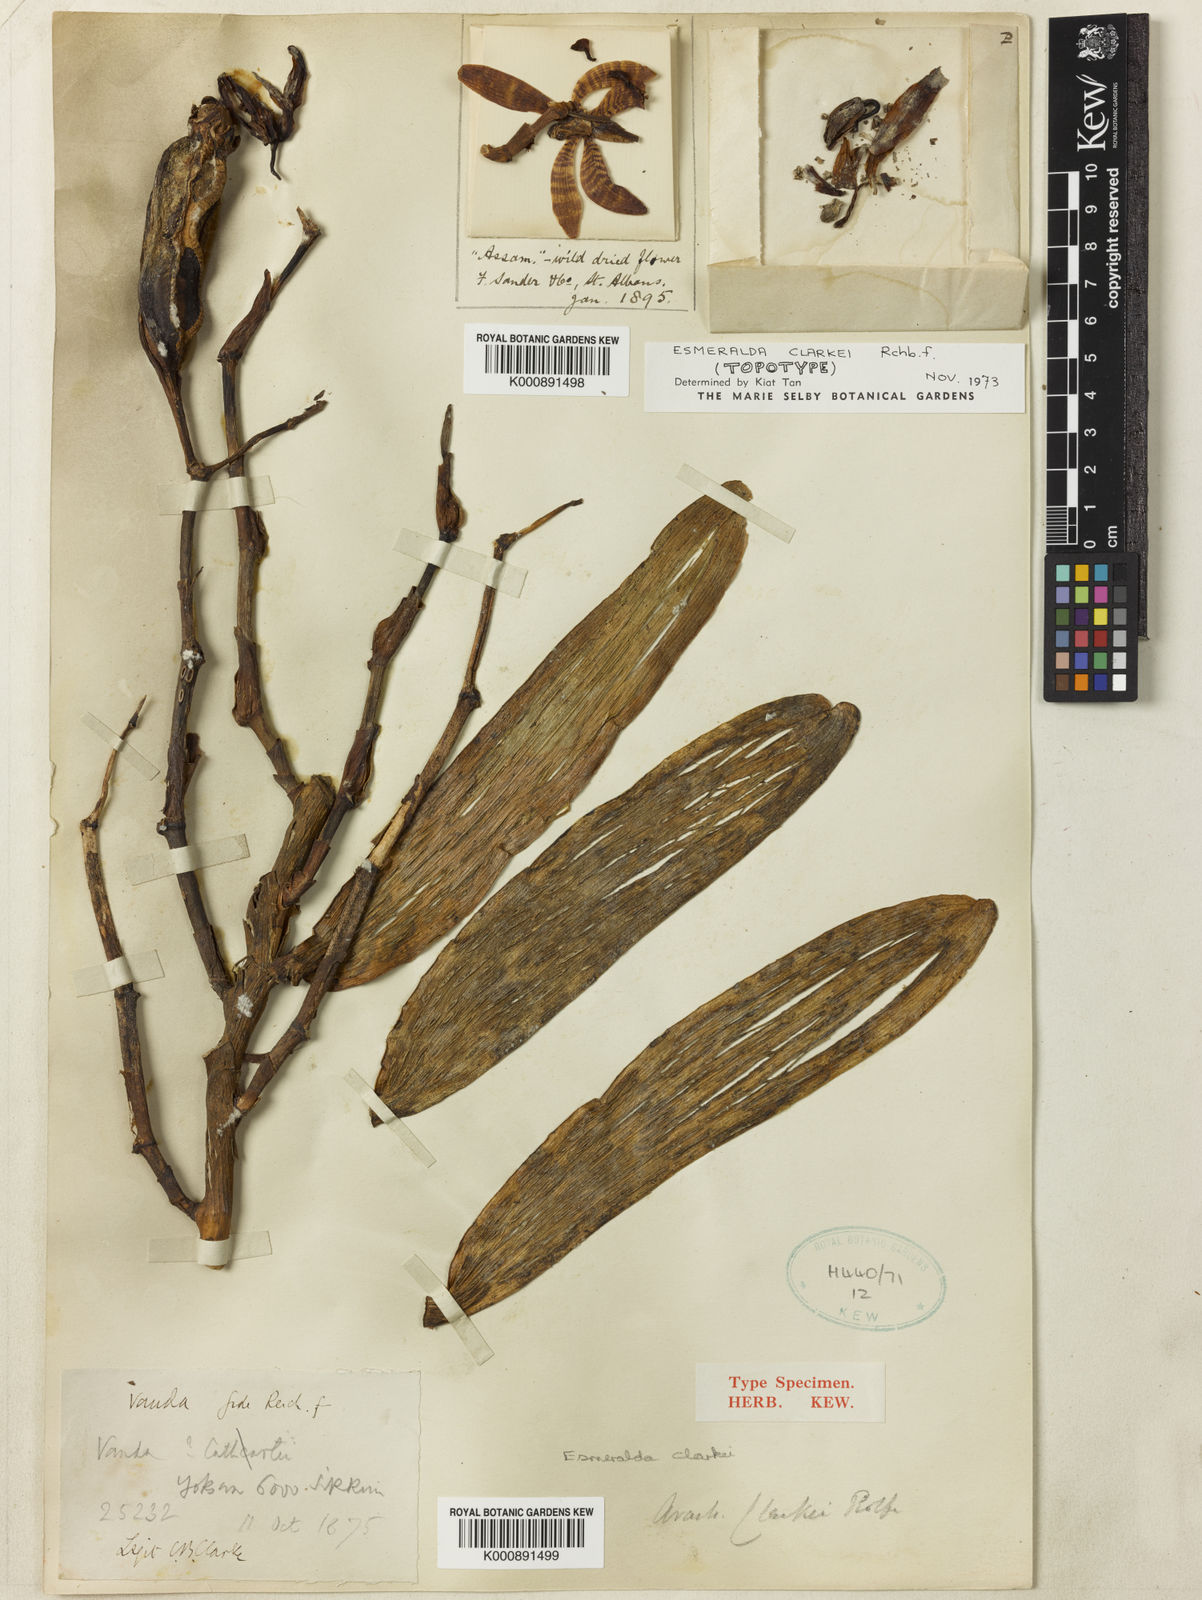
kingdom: Plantae
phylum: Tracheophyta
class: Liliopsida
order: Asparagales
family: Orchidaceae
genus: Arachnis
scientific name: Arachnis clarkei
